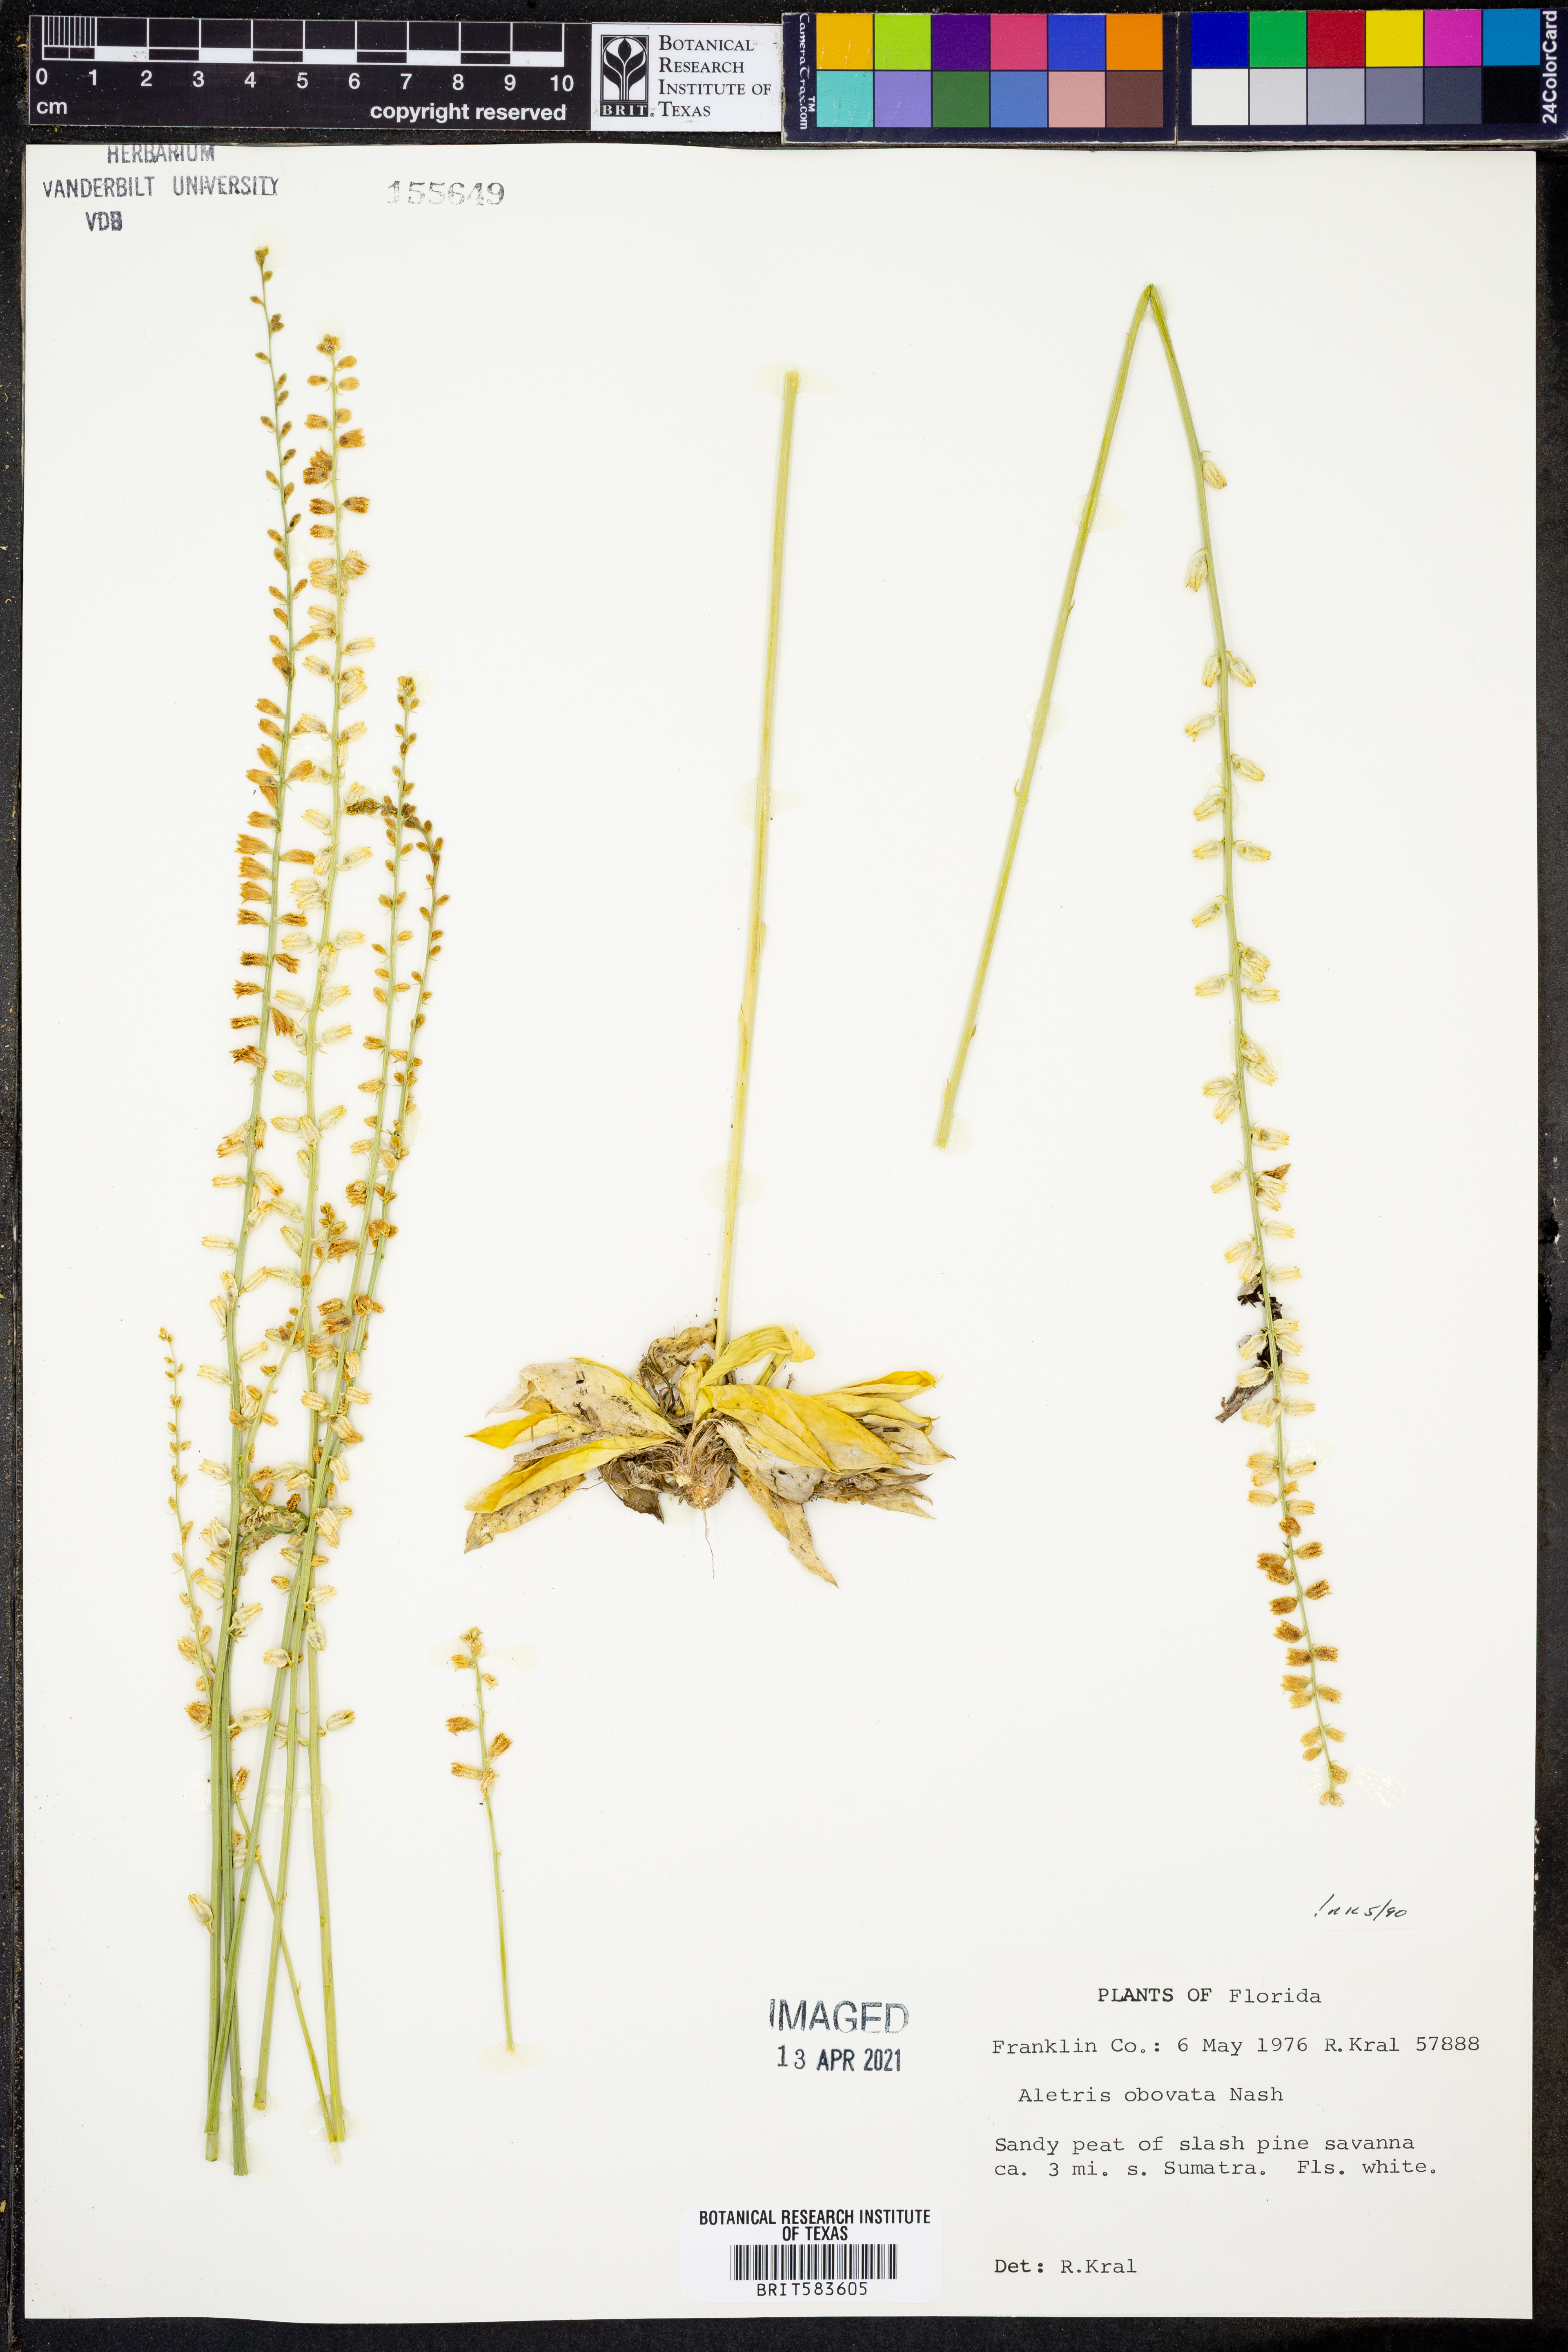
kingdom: Plantae
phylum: Tracheophyta
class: Liliopsida
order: Dioscoreales
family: Nartheciaceae
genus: Aletris
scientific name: Aletris obovata
